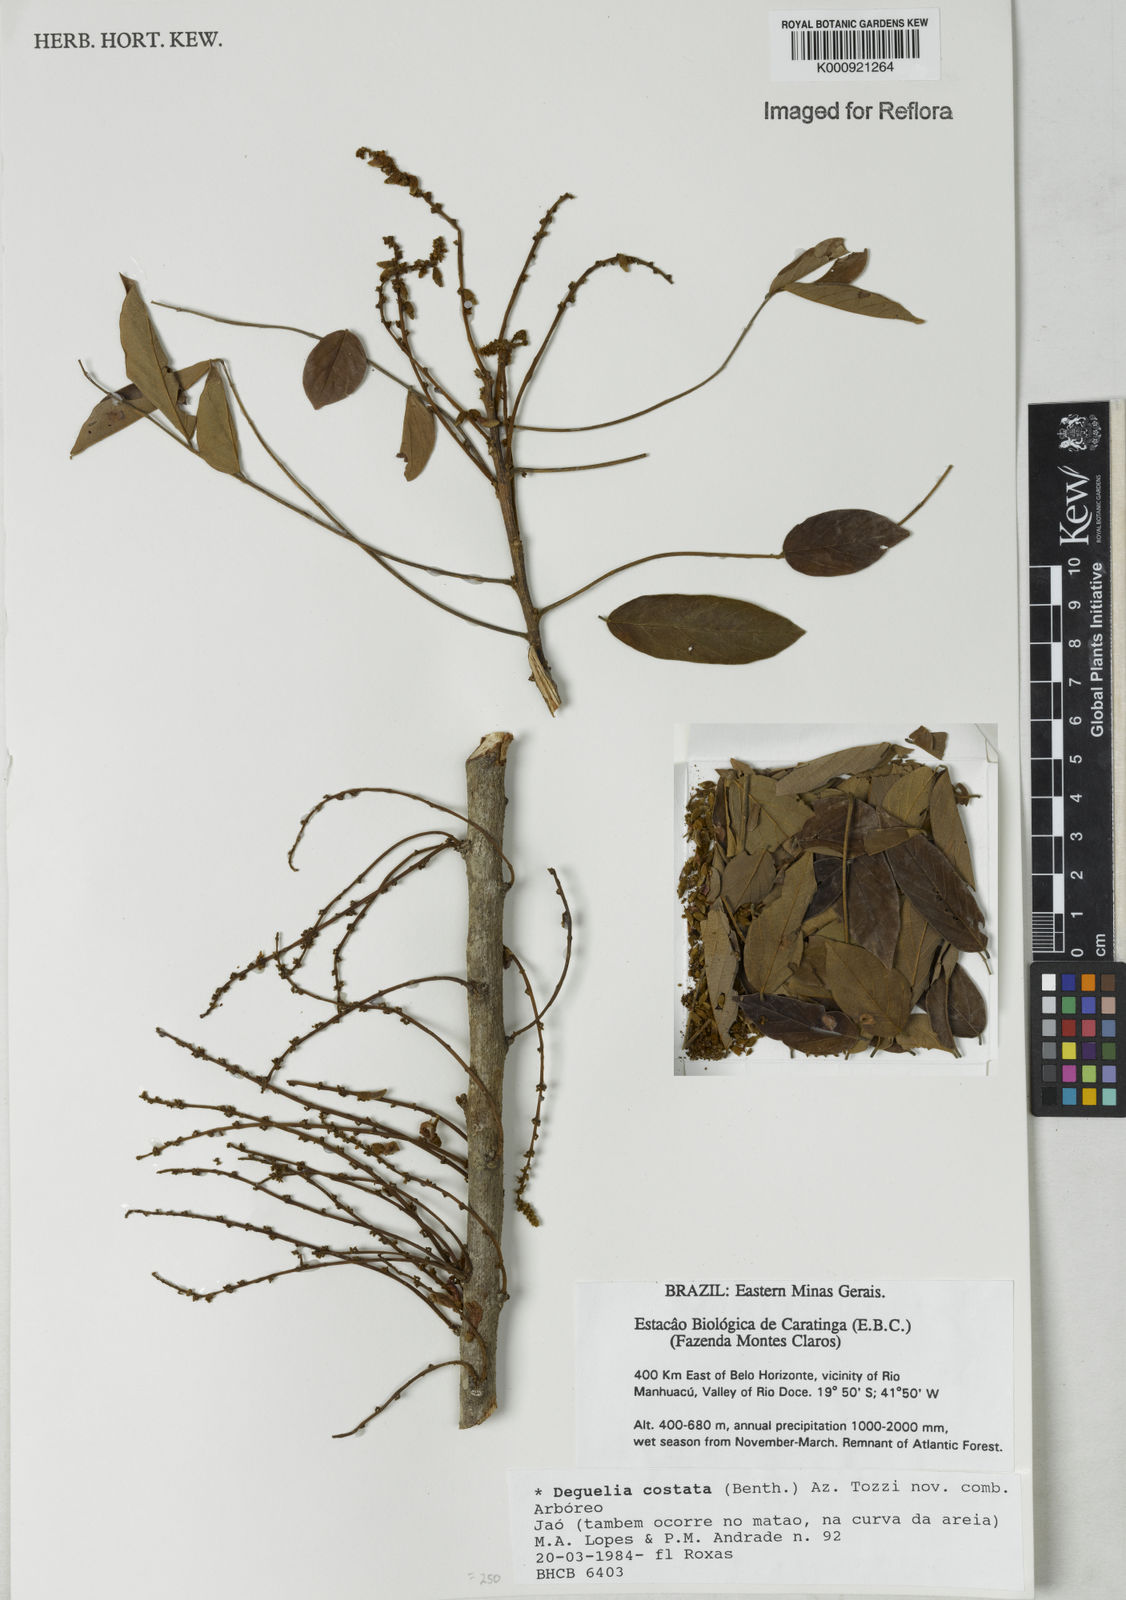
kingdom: Plantae
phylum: Tracheophyta
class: Magnoliopsida
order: Fabales
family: Fabaceae
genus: Deguelia
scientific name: Deguelia costata
